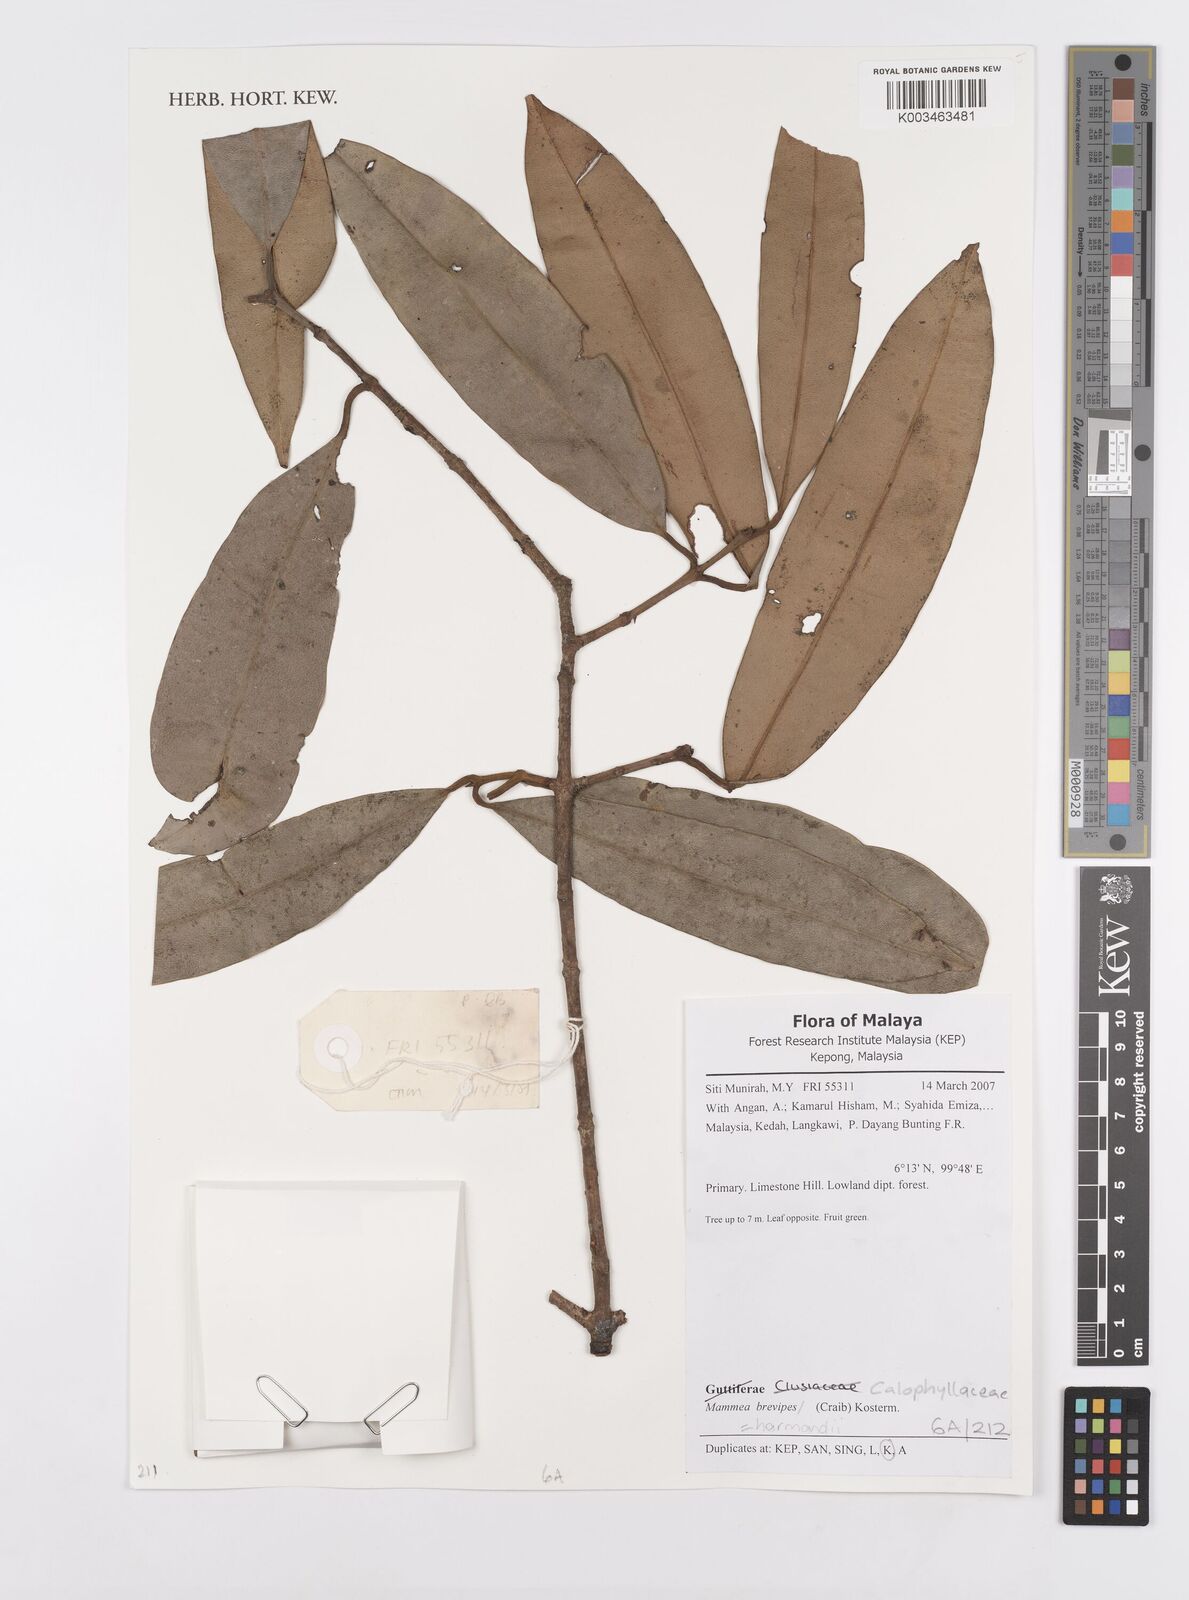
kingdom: Plantae
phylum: Tracheophyta
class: Magnoliopsida
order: Malpighiales
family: Calophyllaceae
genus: Mammea
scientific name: Mammea harmandii
